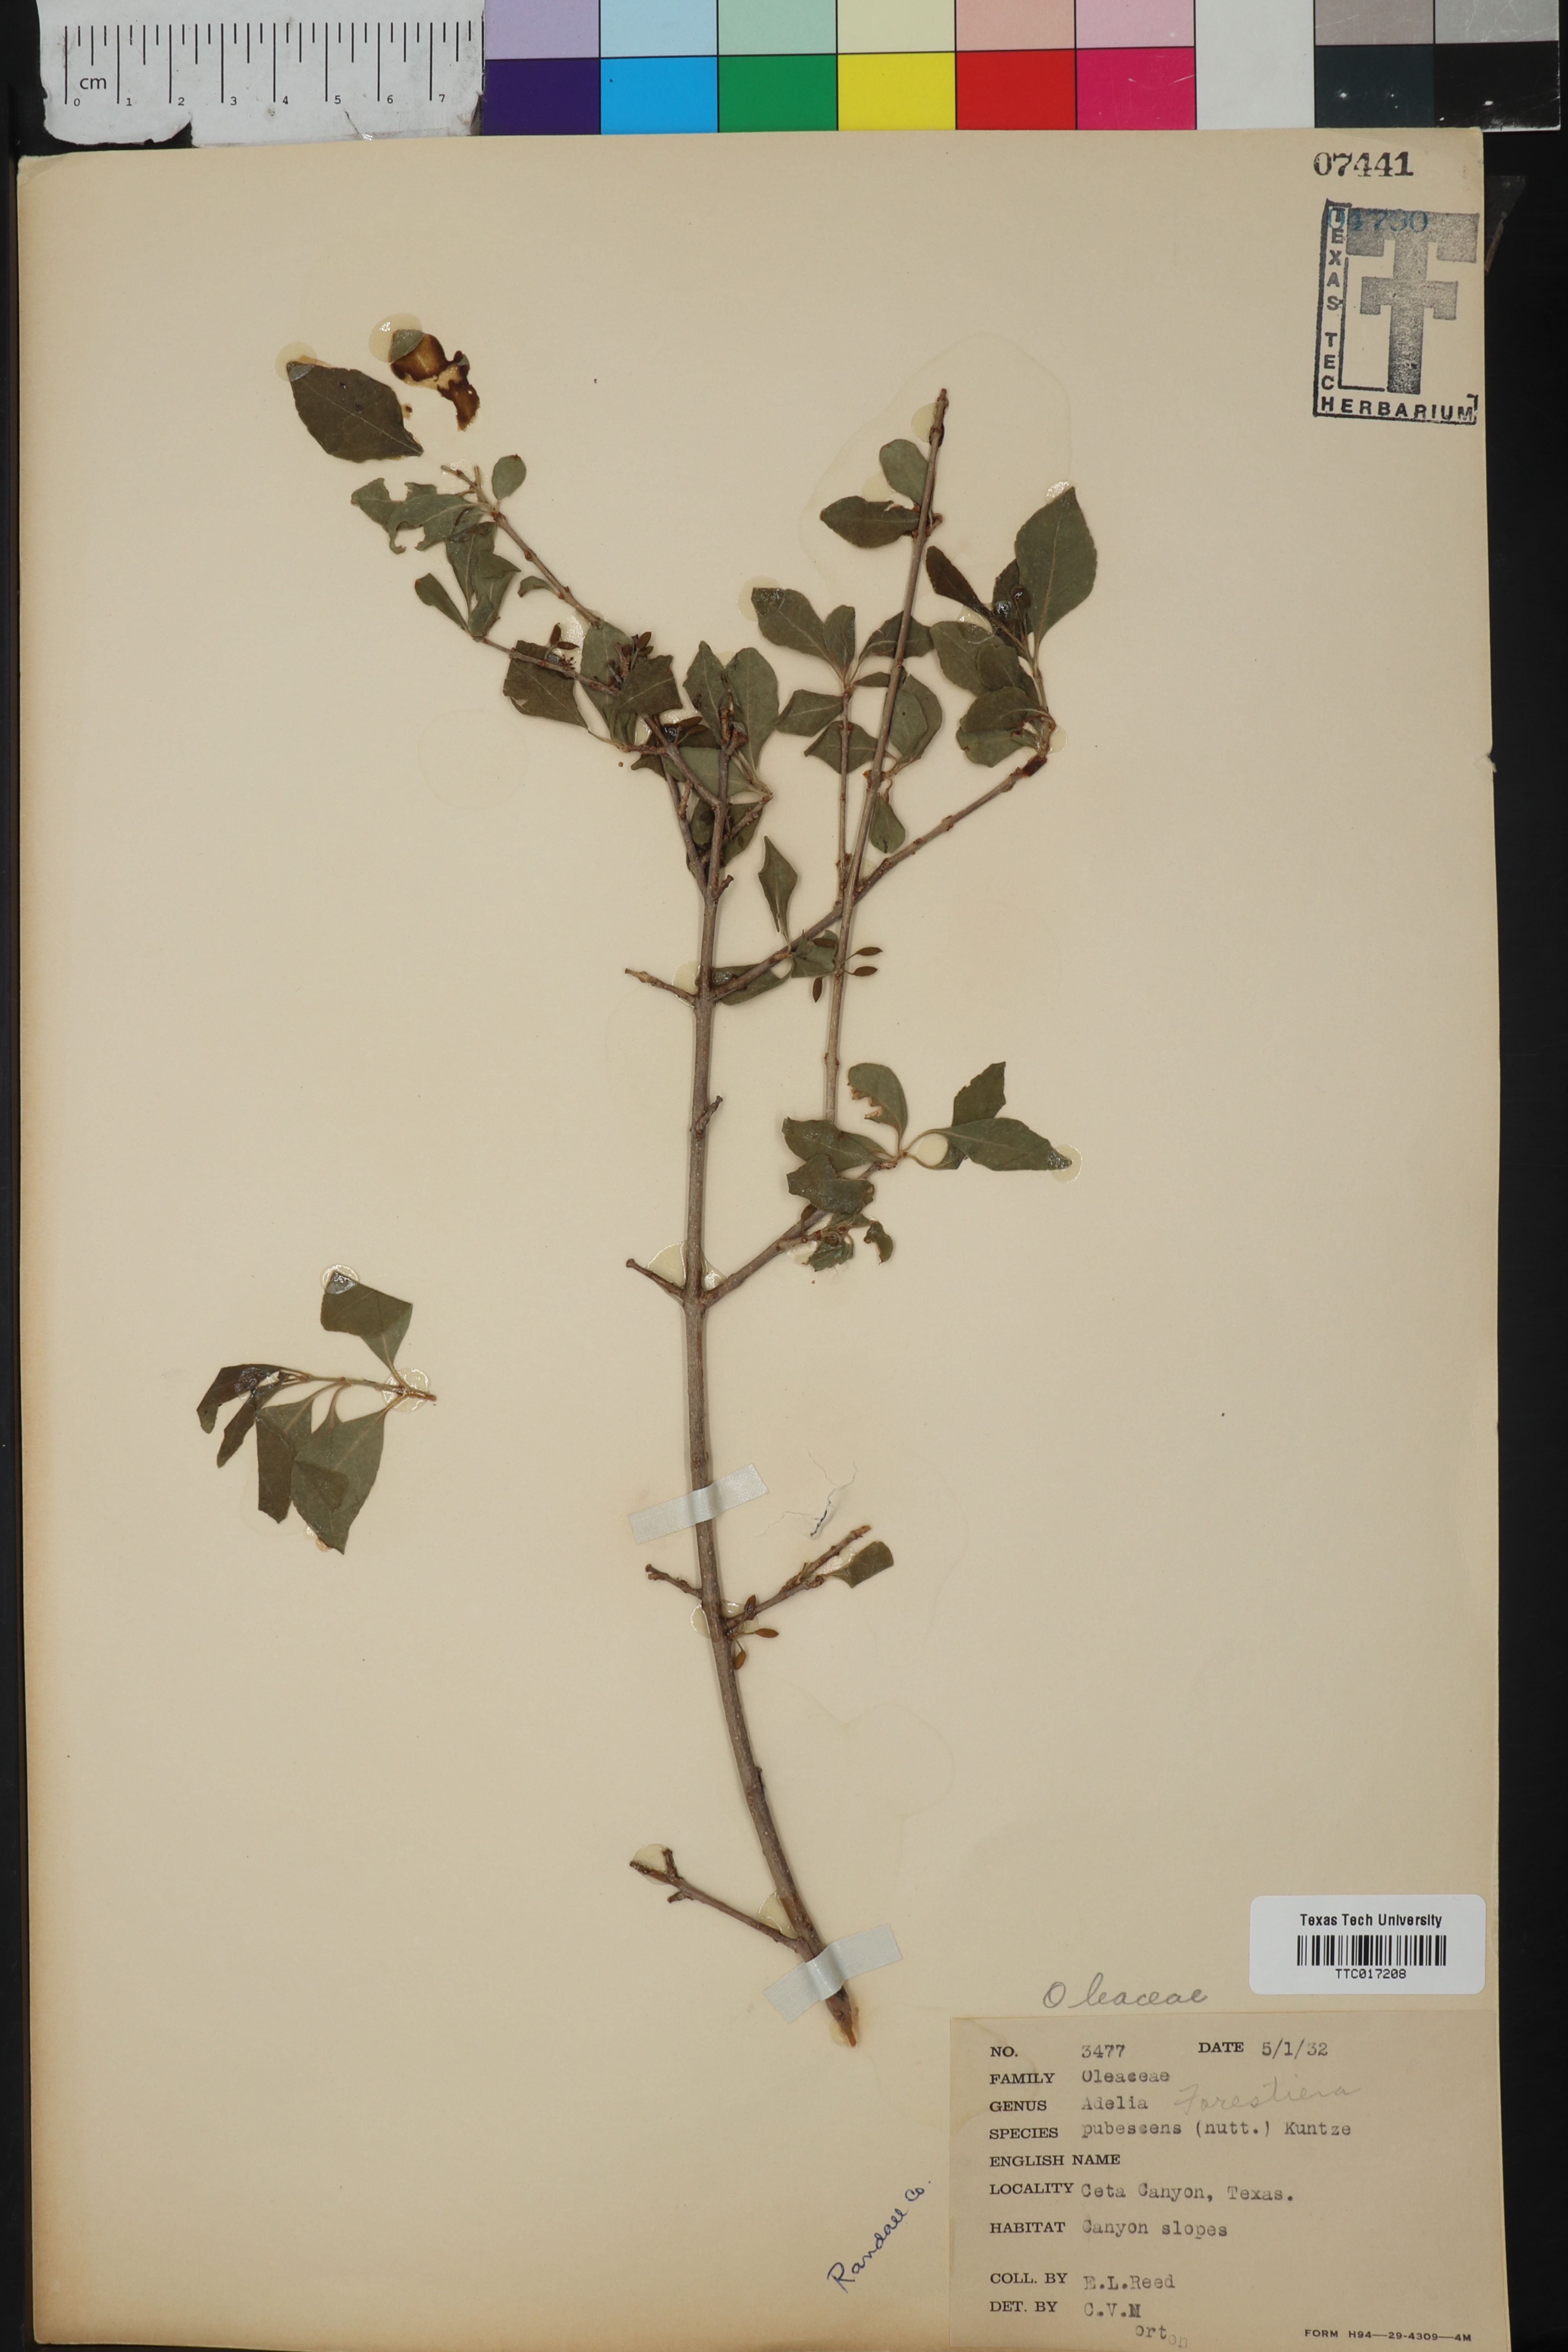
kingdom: Plantae
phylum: Tracheophyta
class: Magnoliopsida
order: Lamiales
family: Oleaceae
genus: Forestiera
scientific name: Forestiera pubescens
